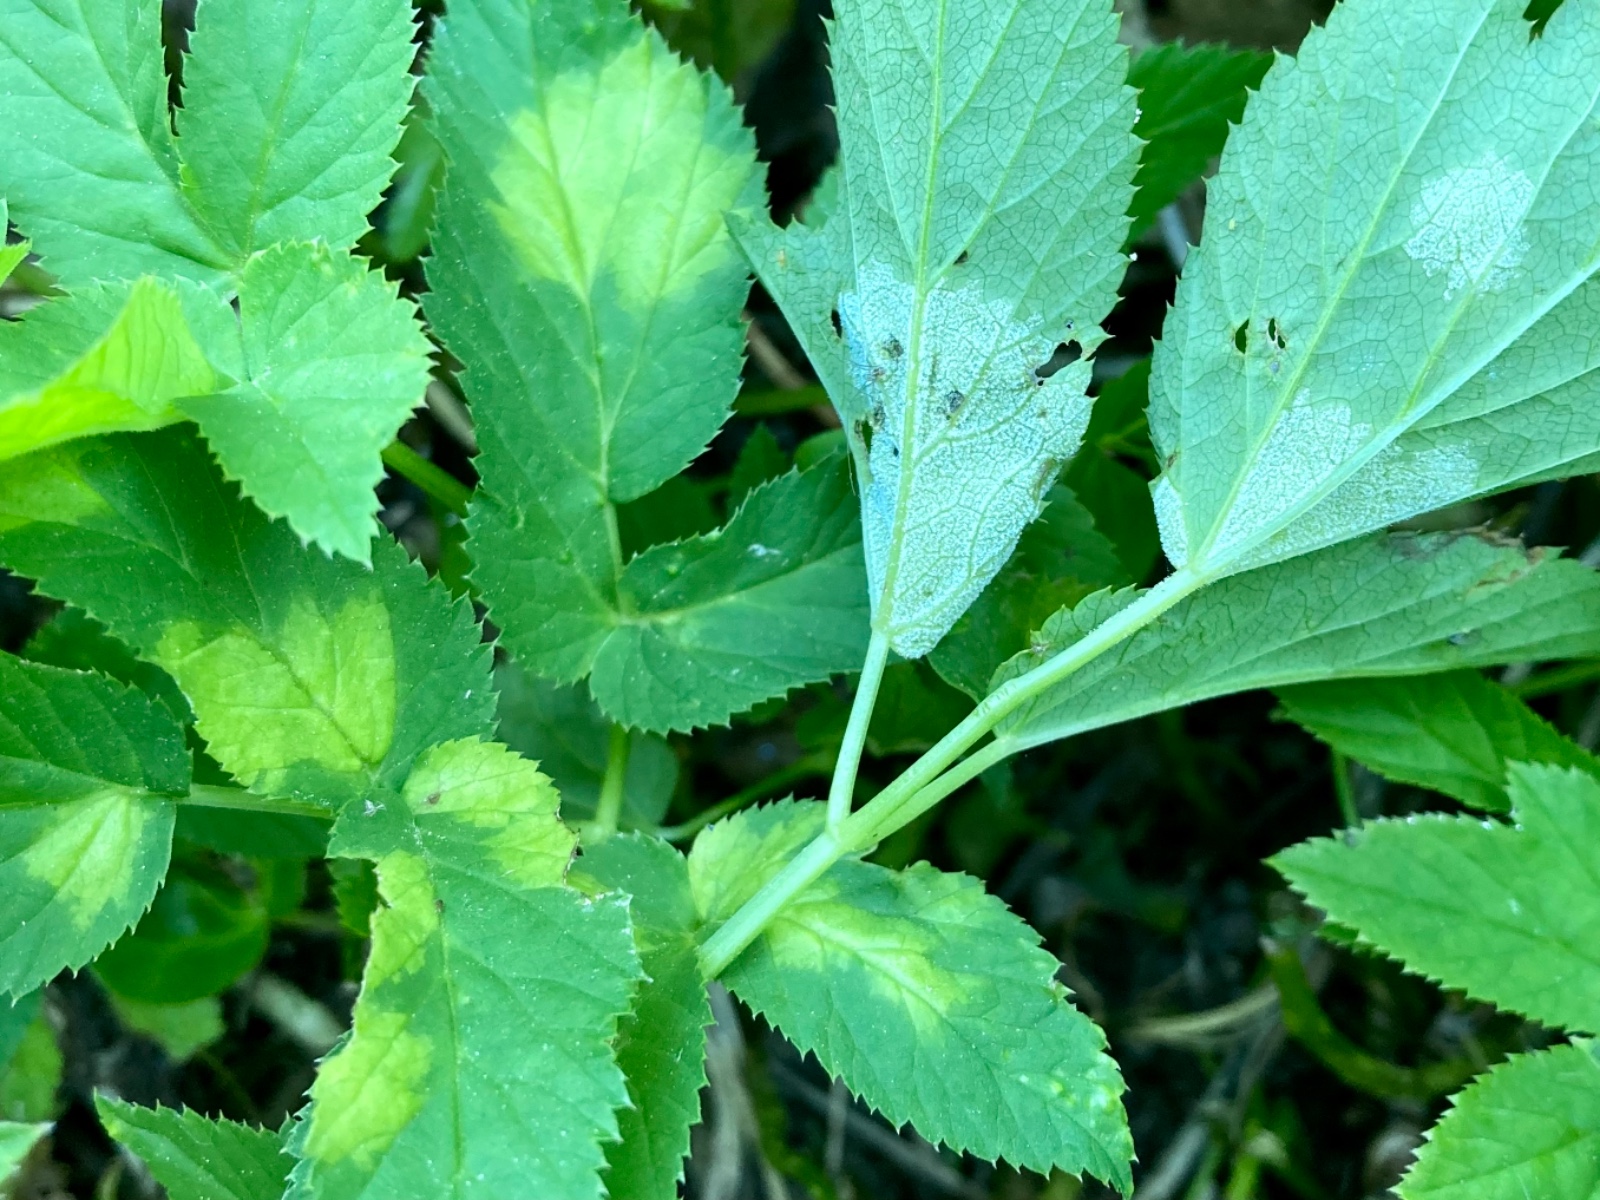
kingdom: Chromista
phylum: Oomycota
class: Peronosporea
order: Peronosporales
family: Peronosporaceae
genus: Peronospora
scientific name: Peronospora crustosa
